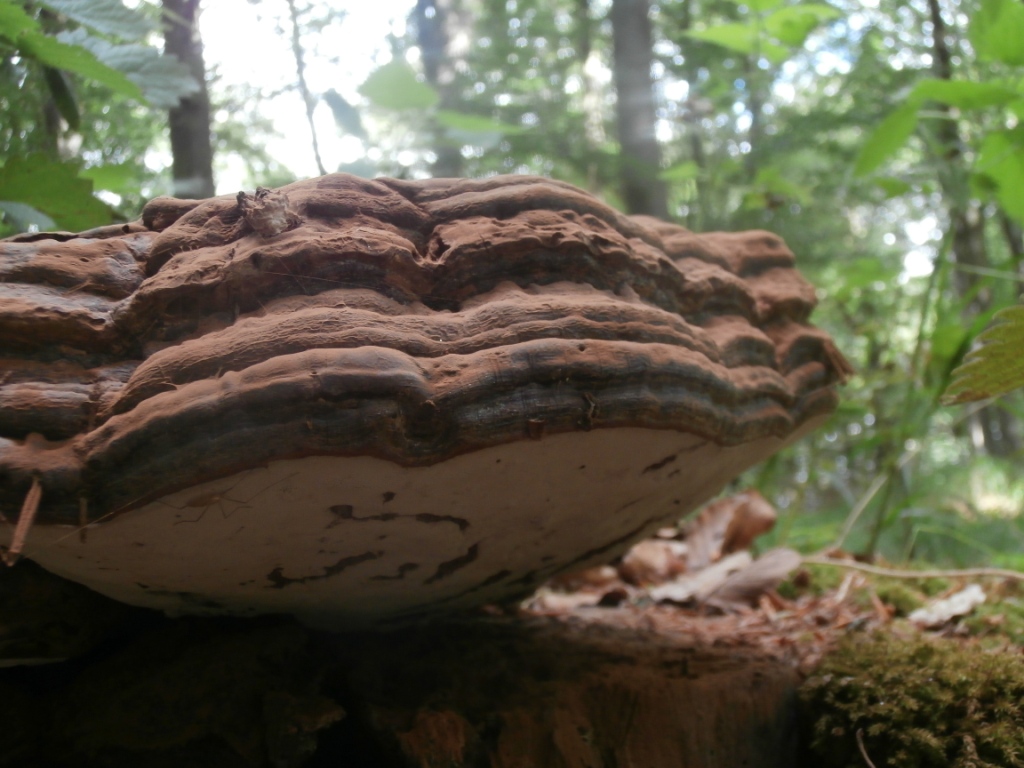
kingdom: Fungi
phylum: Basidiomycota
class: Agaricomycetes
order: Polyporales
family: Polyporaceae
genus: Ganoderma
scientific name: Ganoderma pfeifferi
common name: kobberrød lakporesvamp
